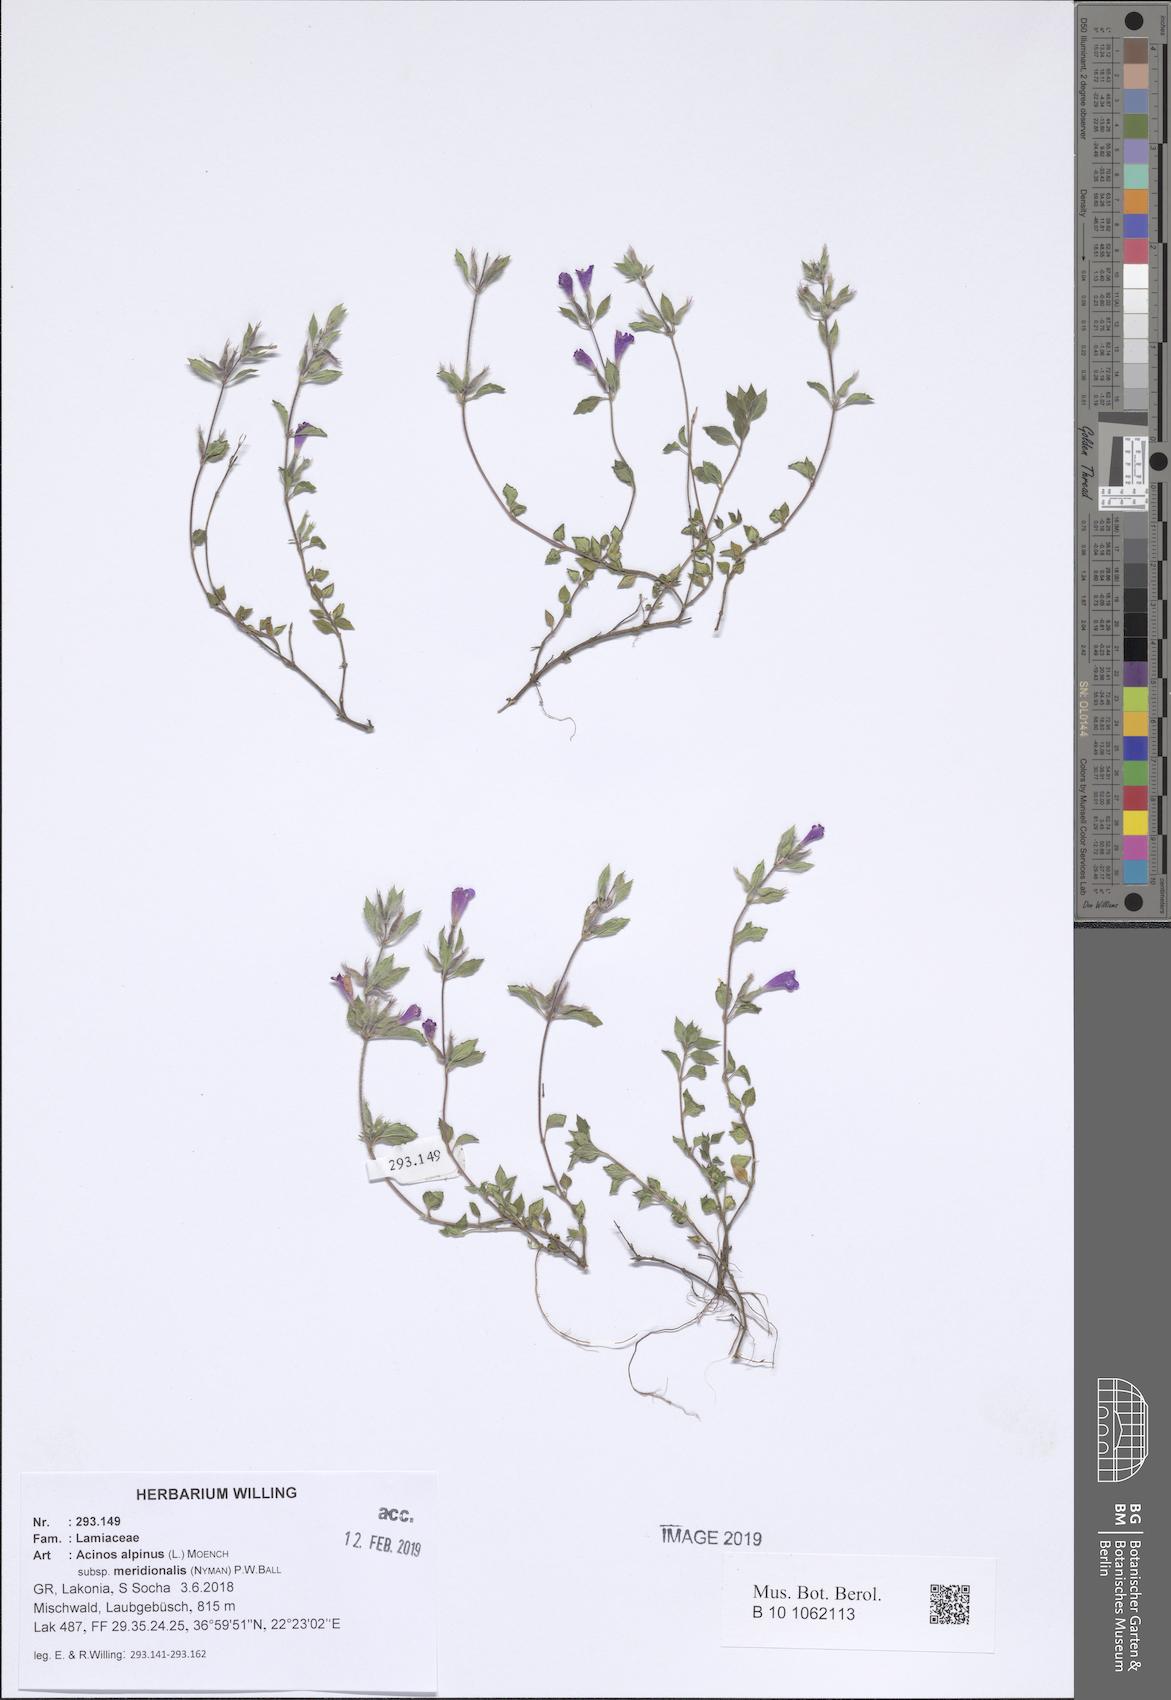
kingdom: Plantae
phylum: Tracheophyta
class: Magnoliopsida
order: Lamiales
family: Lamiaceae
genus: Clinopodium
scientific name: Clinopodium alpinum
